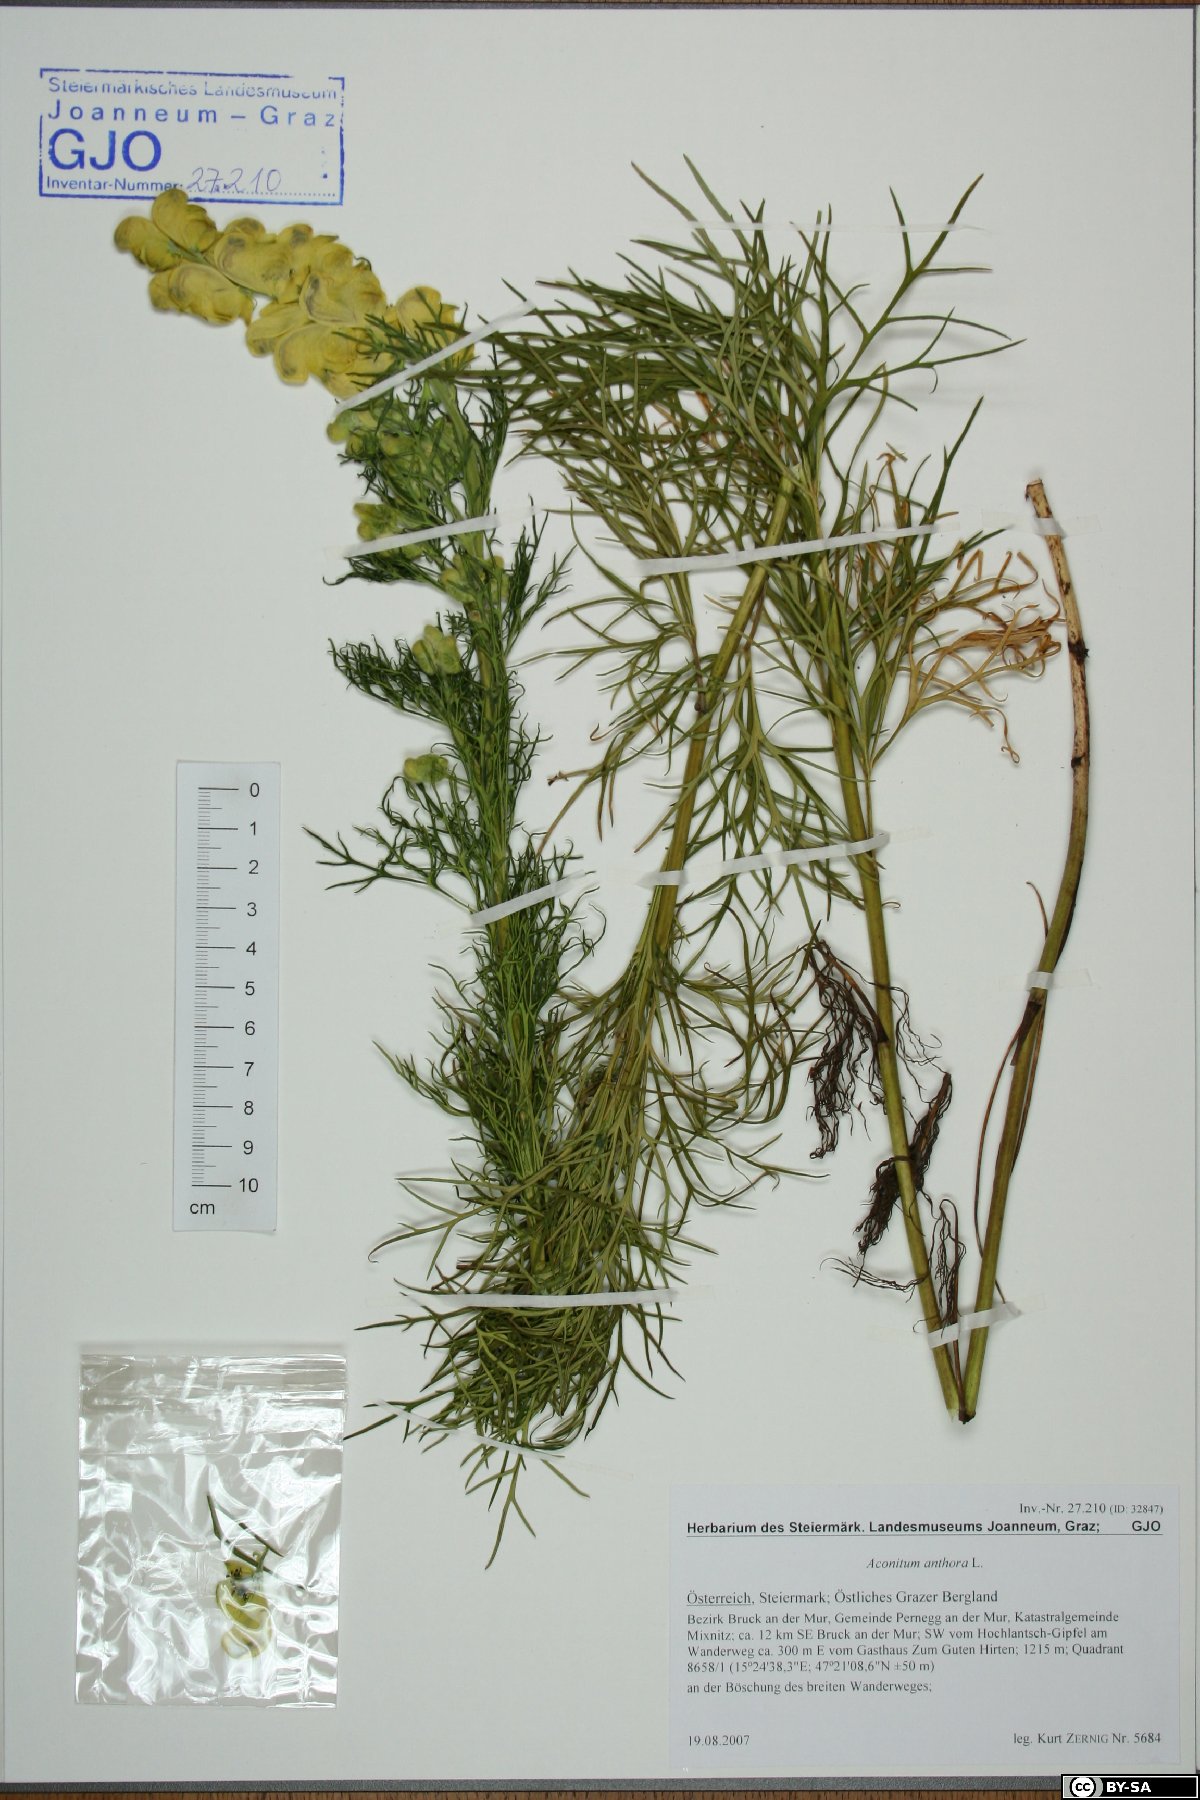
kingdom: Plantae
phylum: Tracheophyta
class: Magnoliopsida
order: Ranunculales
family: Ranunculaceae
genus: Aconitum
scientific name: Aconitum anthora
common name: Yellow monkshood
